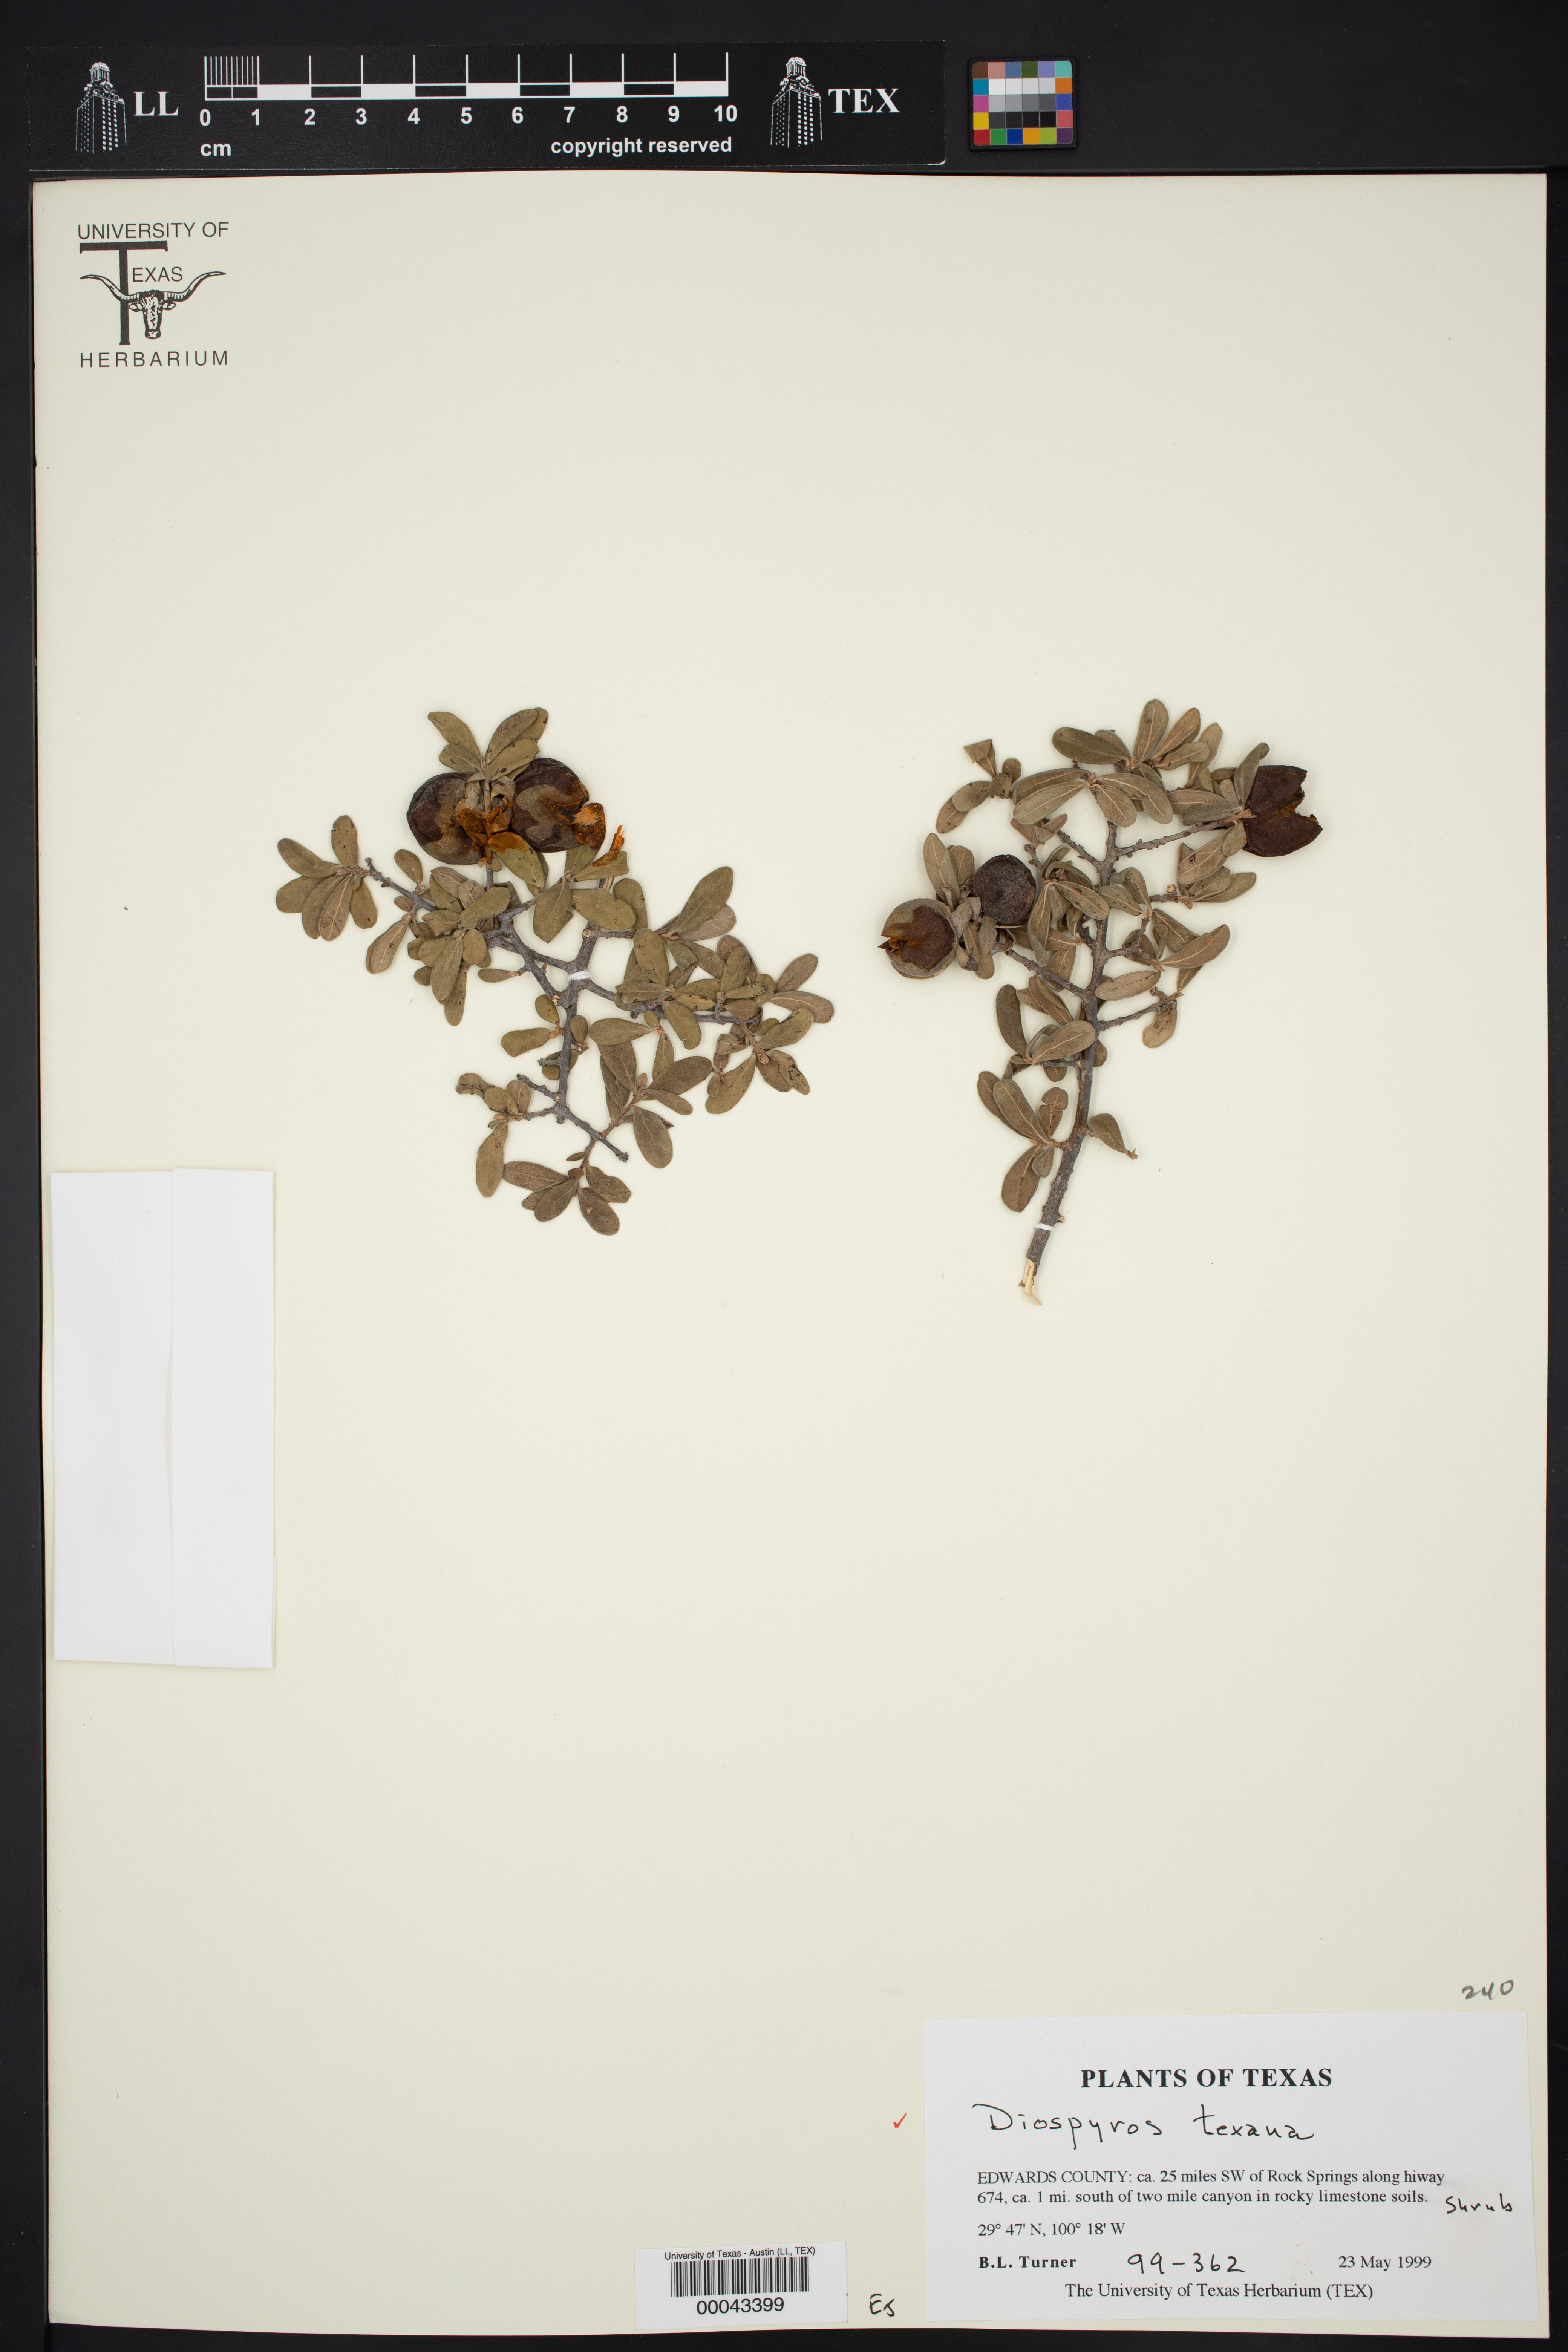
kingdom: Plantae
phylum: Tracheophyta
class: Magnoliopsida
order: Ericales
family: Ebenaceae
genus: Diospyros
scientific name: Diospyros texana
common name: Texas persimmon
